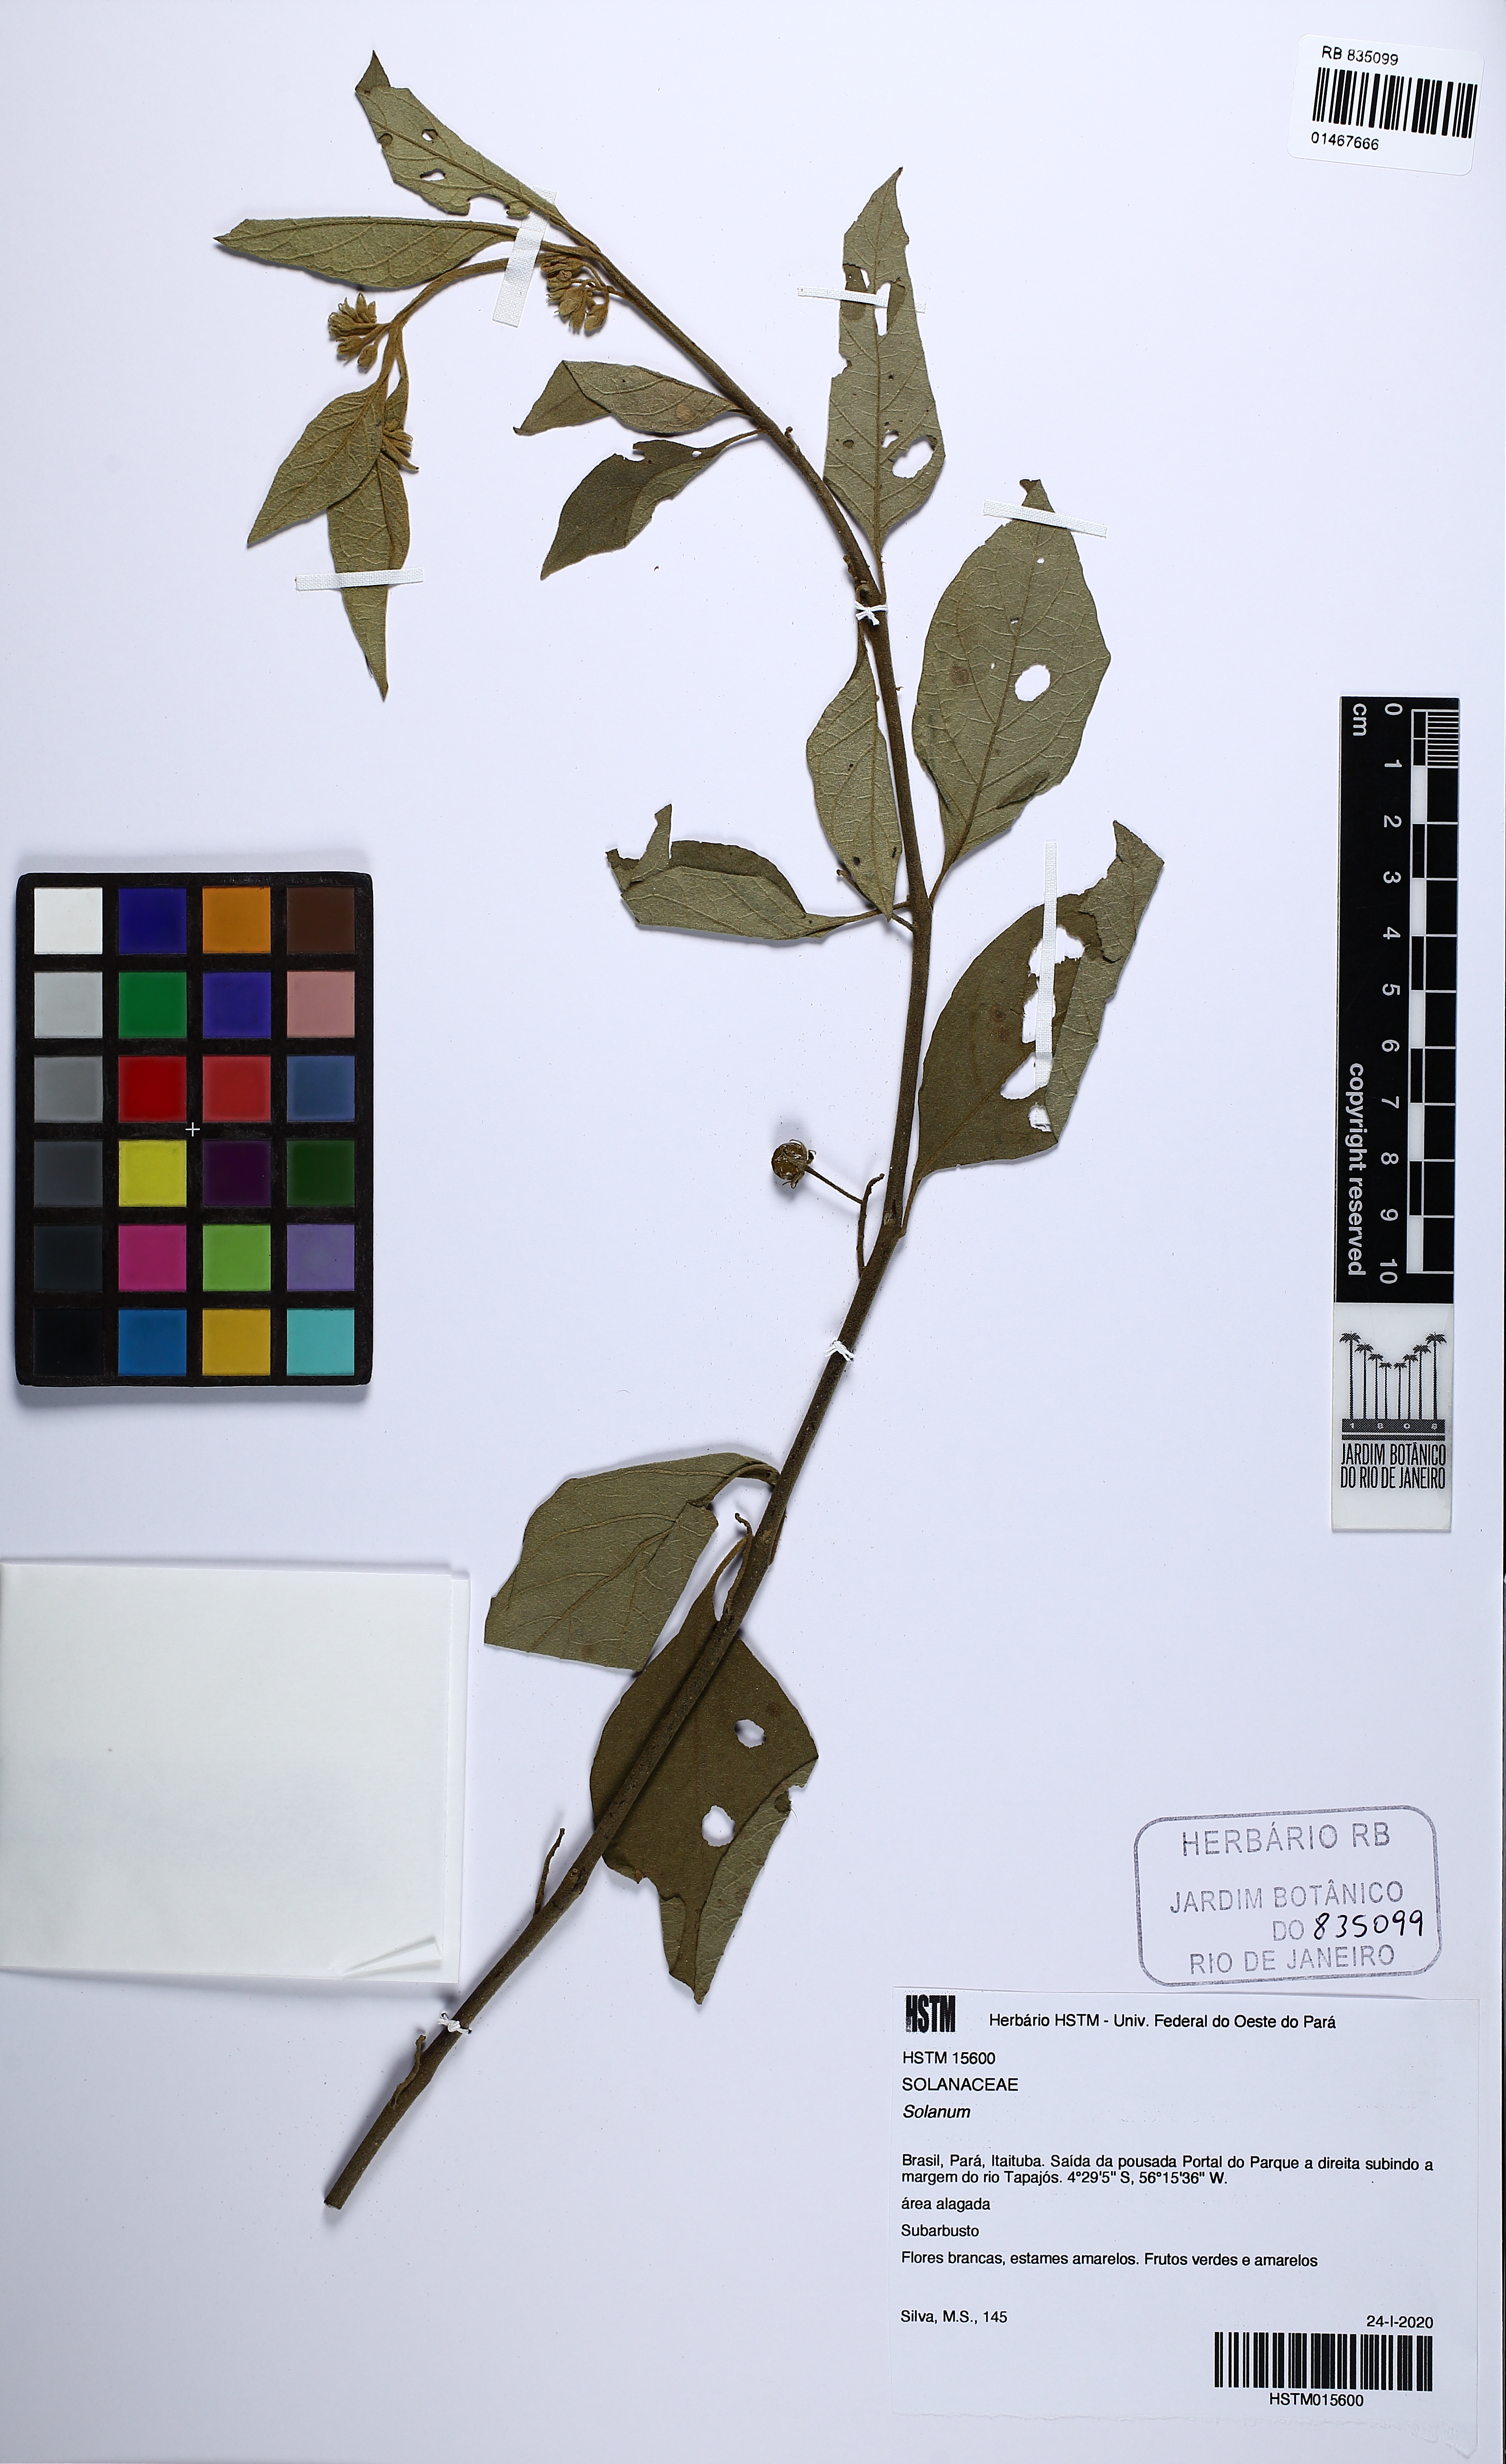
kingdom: Plantae
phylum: Tracheophyta
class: Magnoliopsida
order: Solanales
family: Solanaceae
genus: Solanum
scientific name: Solanum
